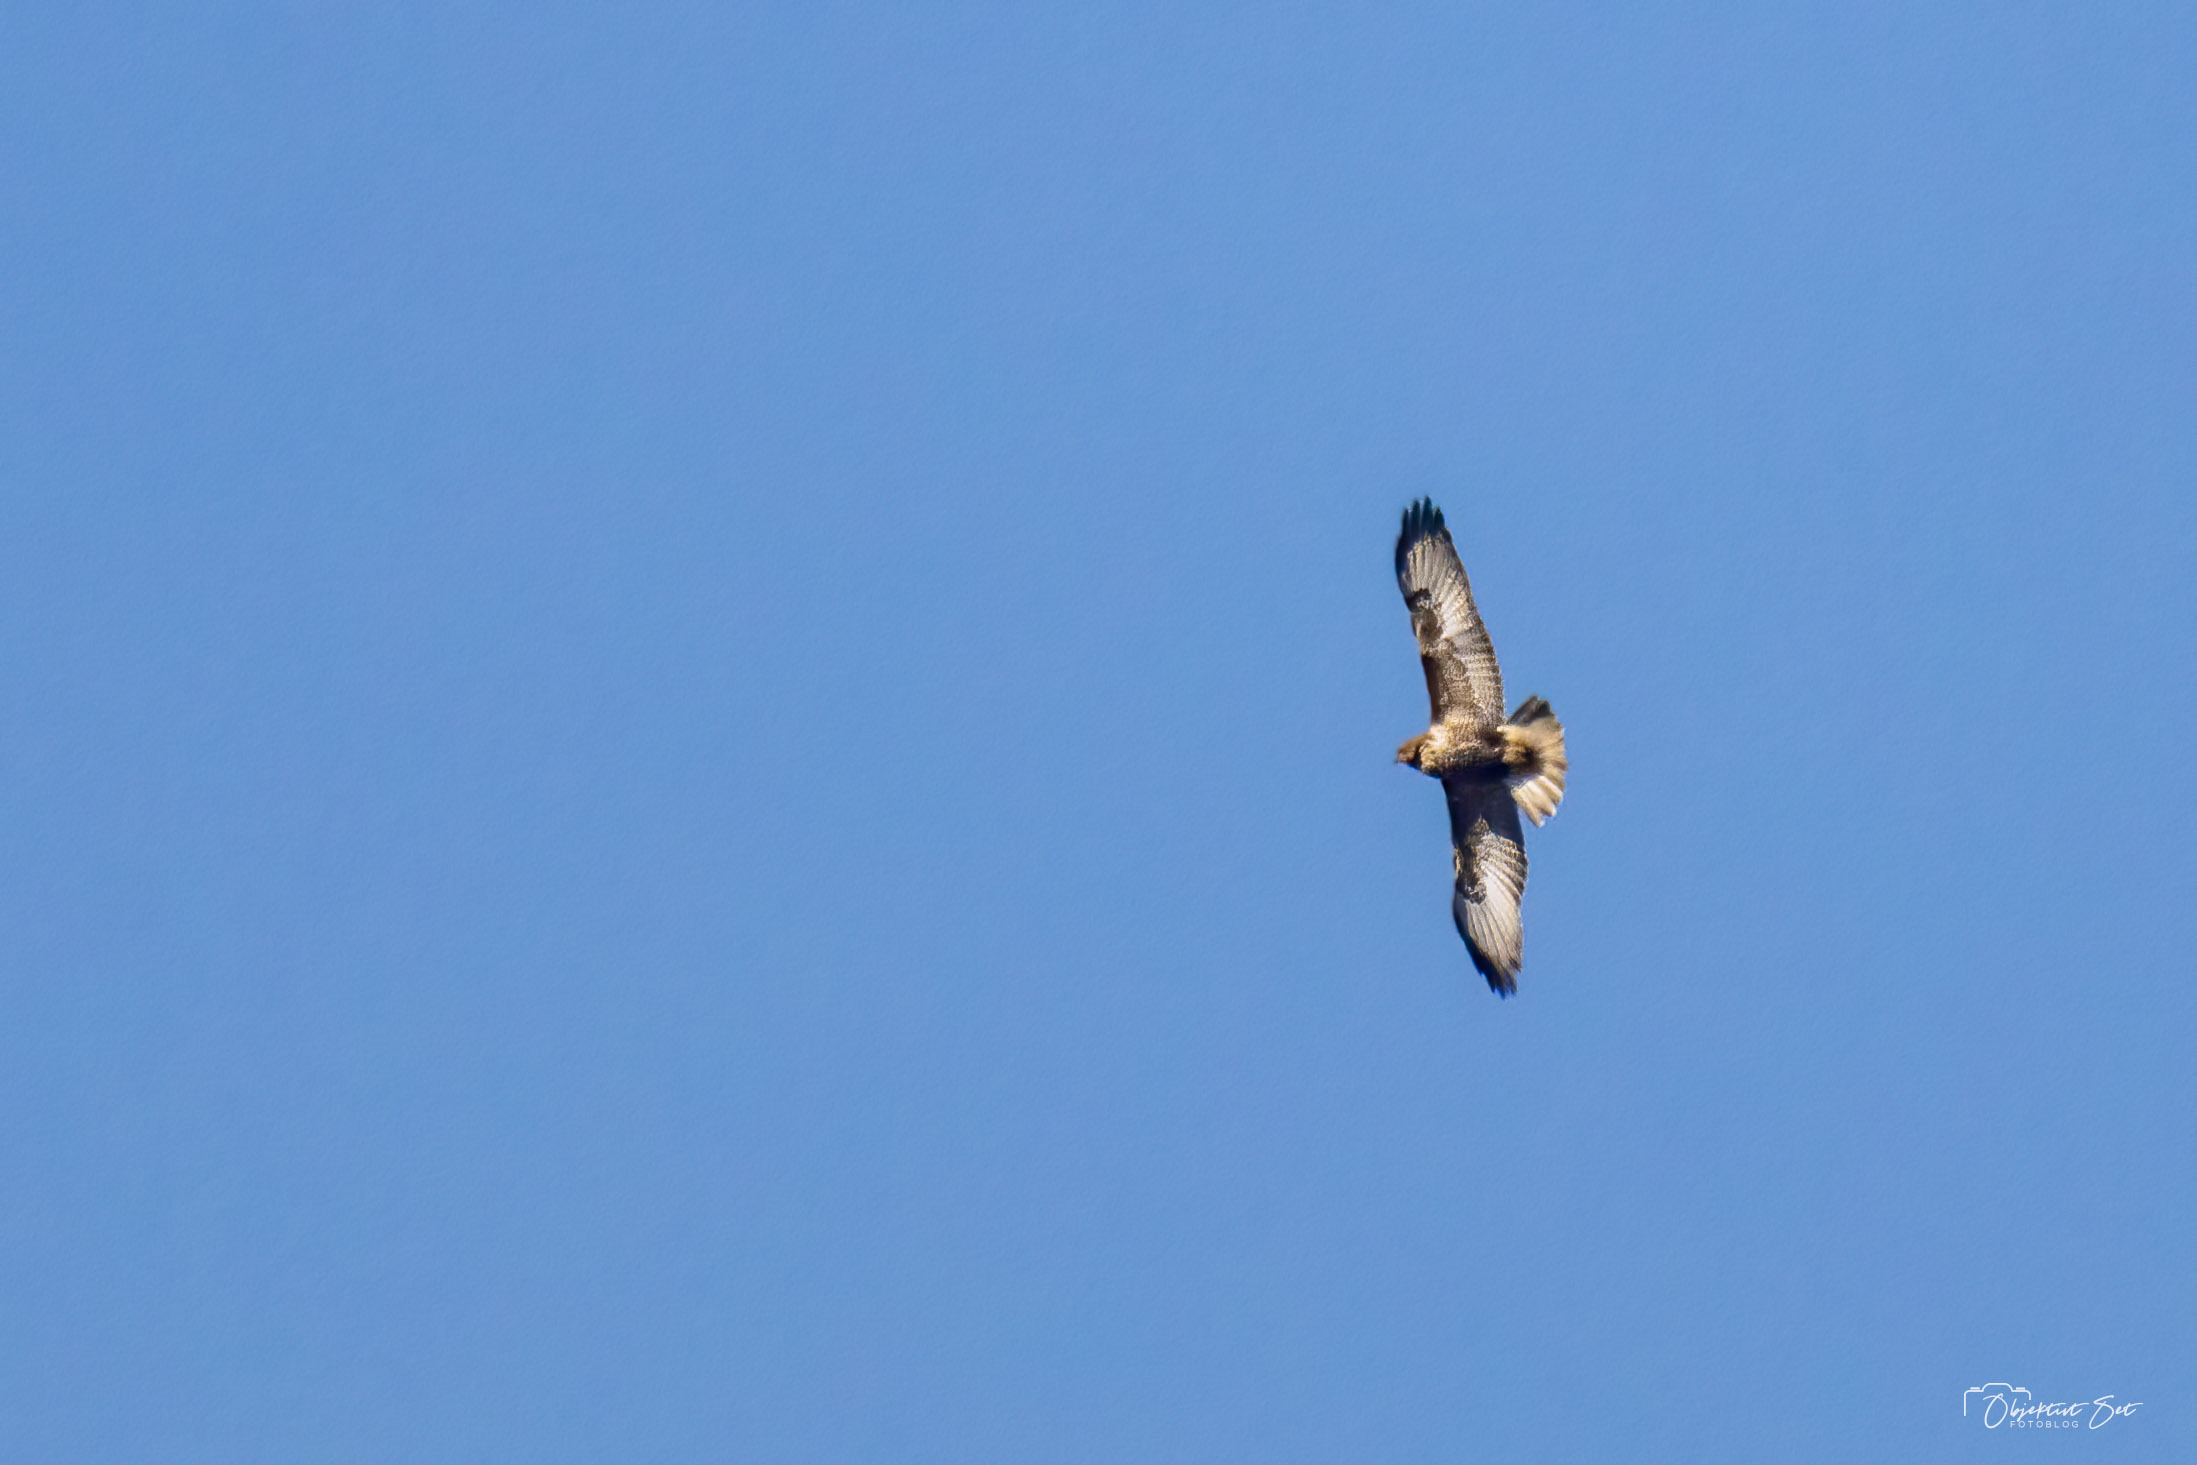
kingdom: Animalia
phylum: Chordata
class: Aves
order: Accipitriformes
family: Accipitridae
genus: Buteo
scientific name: Buteo buteo
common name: Musvåge
